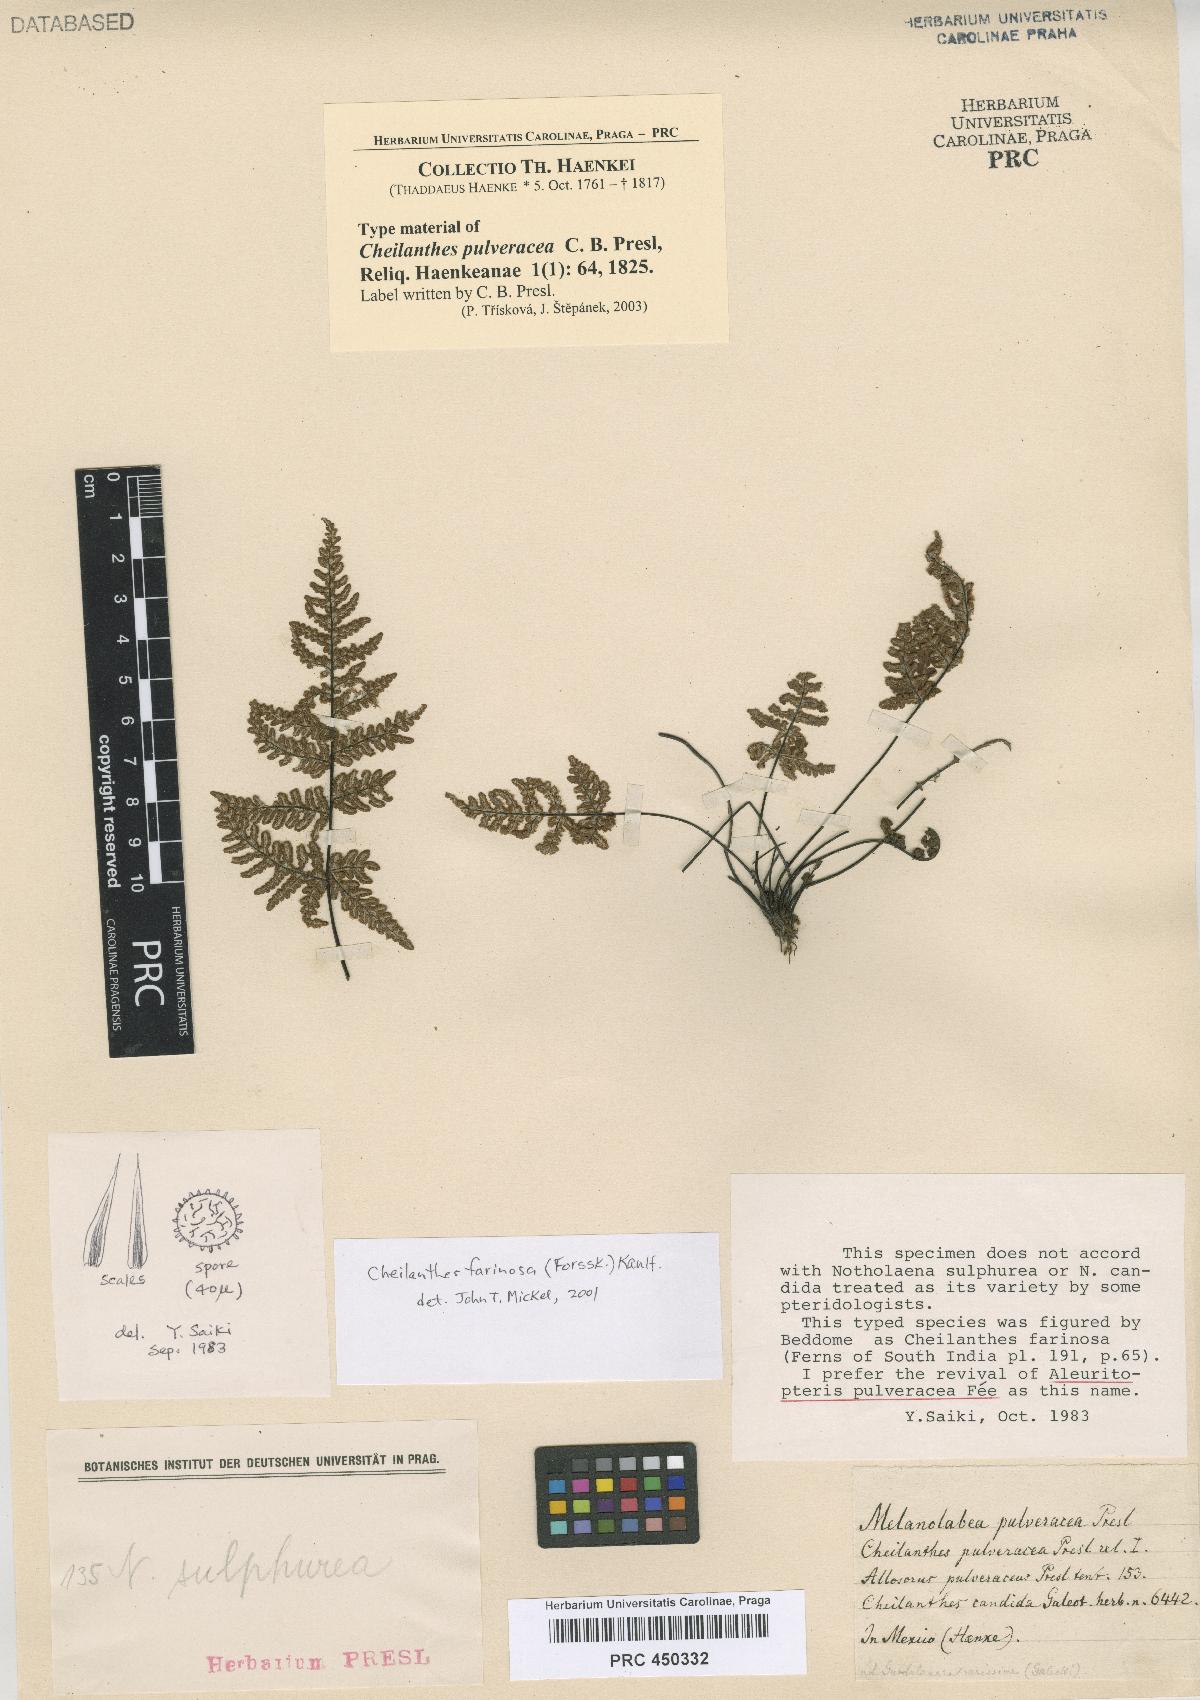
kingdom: Plantae
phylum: Tracheophyta
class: Polypodiopsida
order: Polypodiales
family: Pteridaceae
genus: Aleuritopteris
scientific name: Aleuritopteris mexicana
